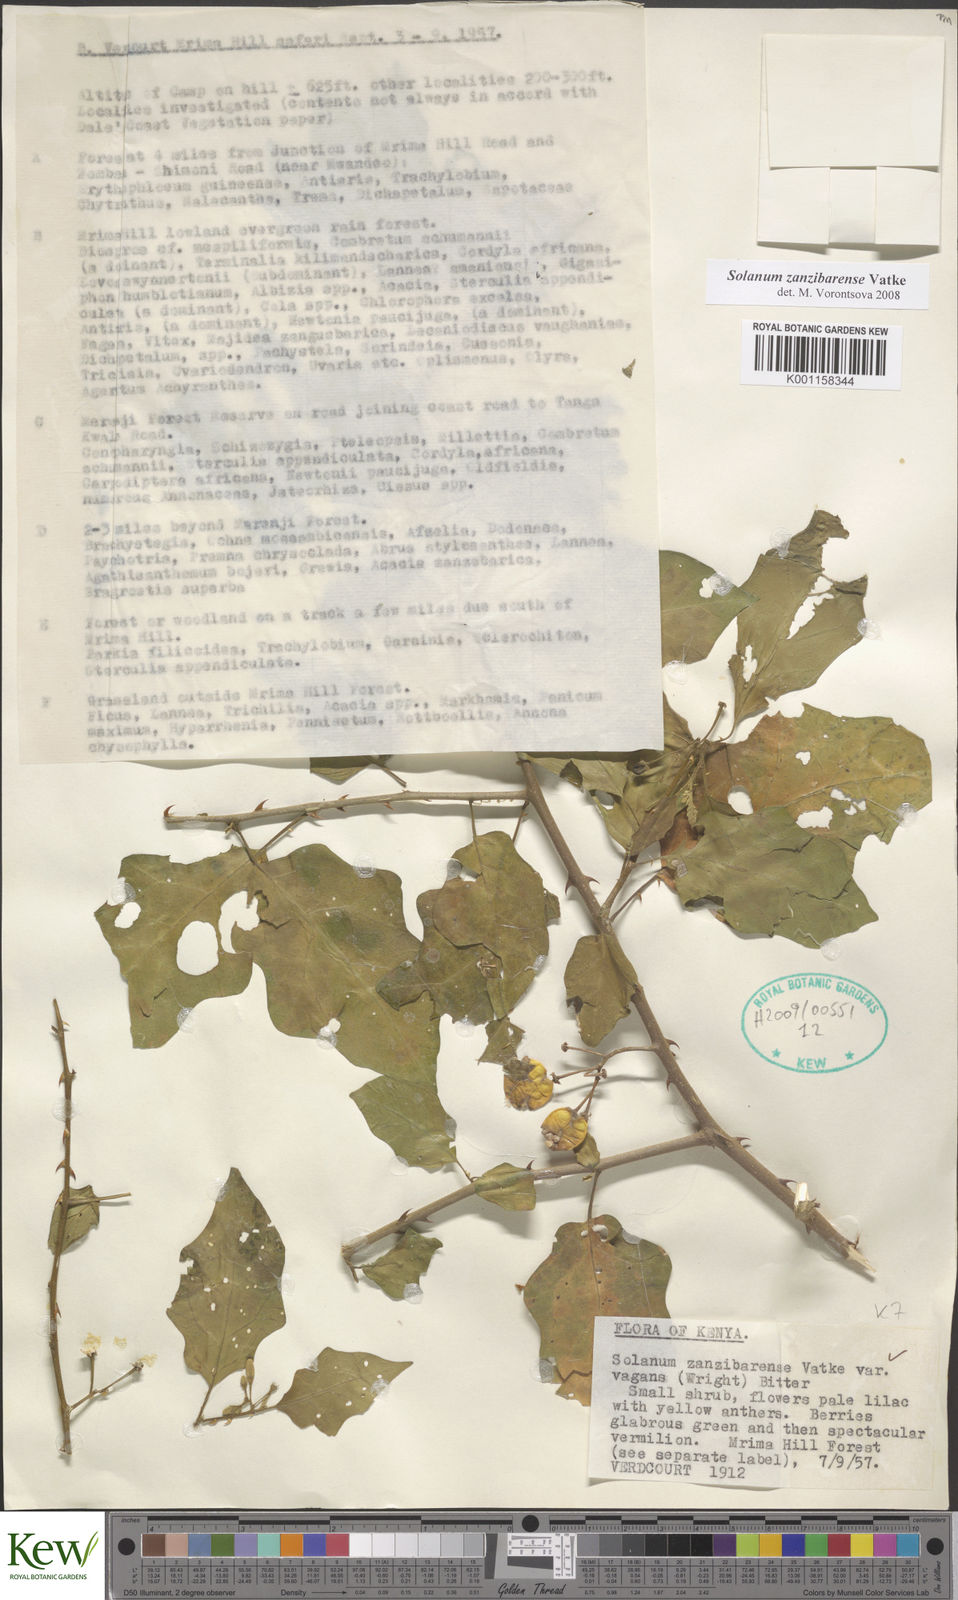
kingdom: Plantae
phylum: Tracheophyta
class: Magnoliopsida
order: Solanales
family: Solanaceae
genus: Solanum
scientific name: Solanum zanzibarense
